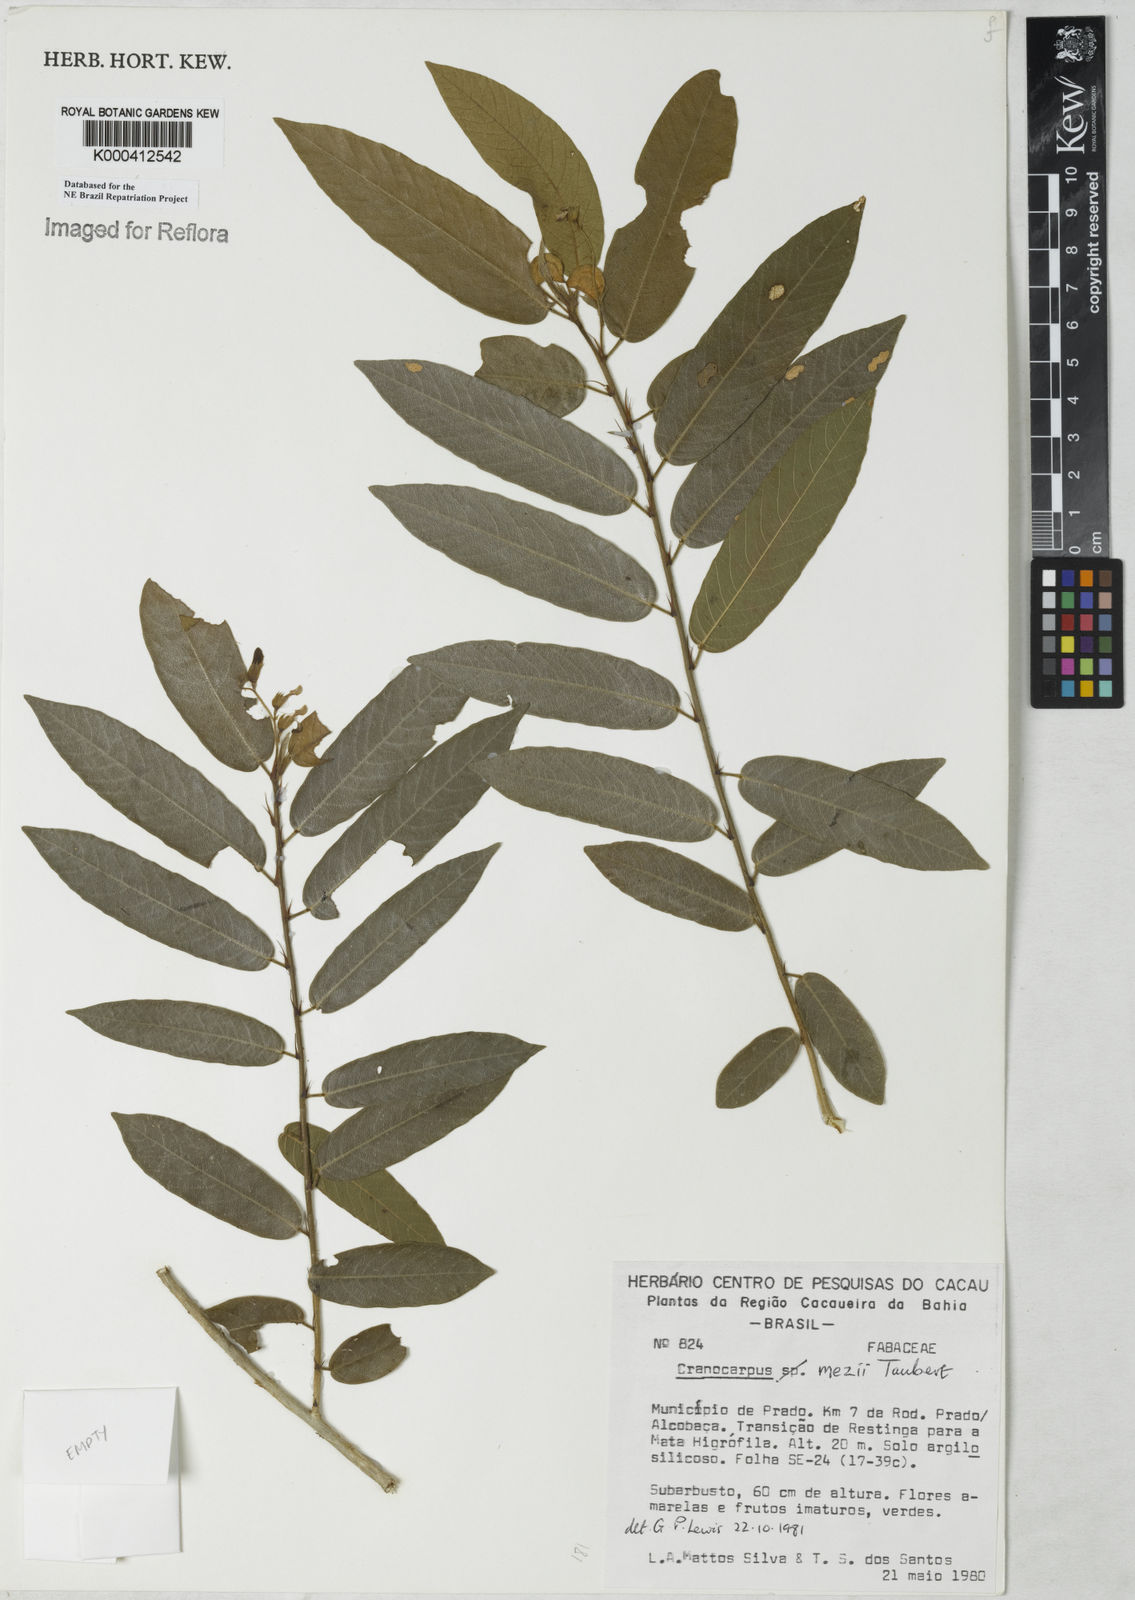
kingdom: Plantae
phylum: Tracheophyta
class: Magnoliopsida
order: Fabales
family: Fabaceae
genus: Cranocarpus
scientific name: Cranocarpus mezii
